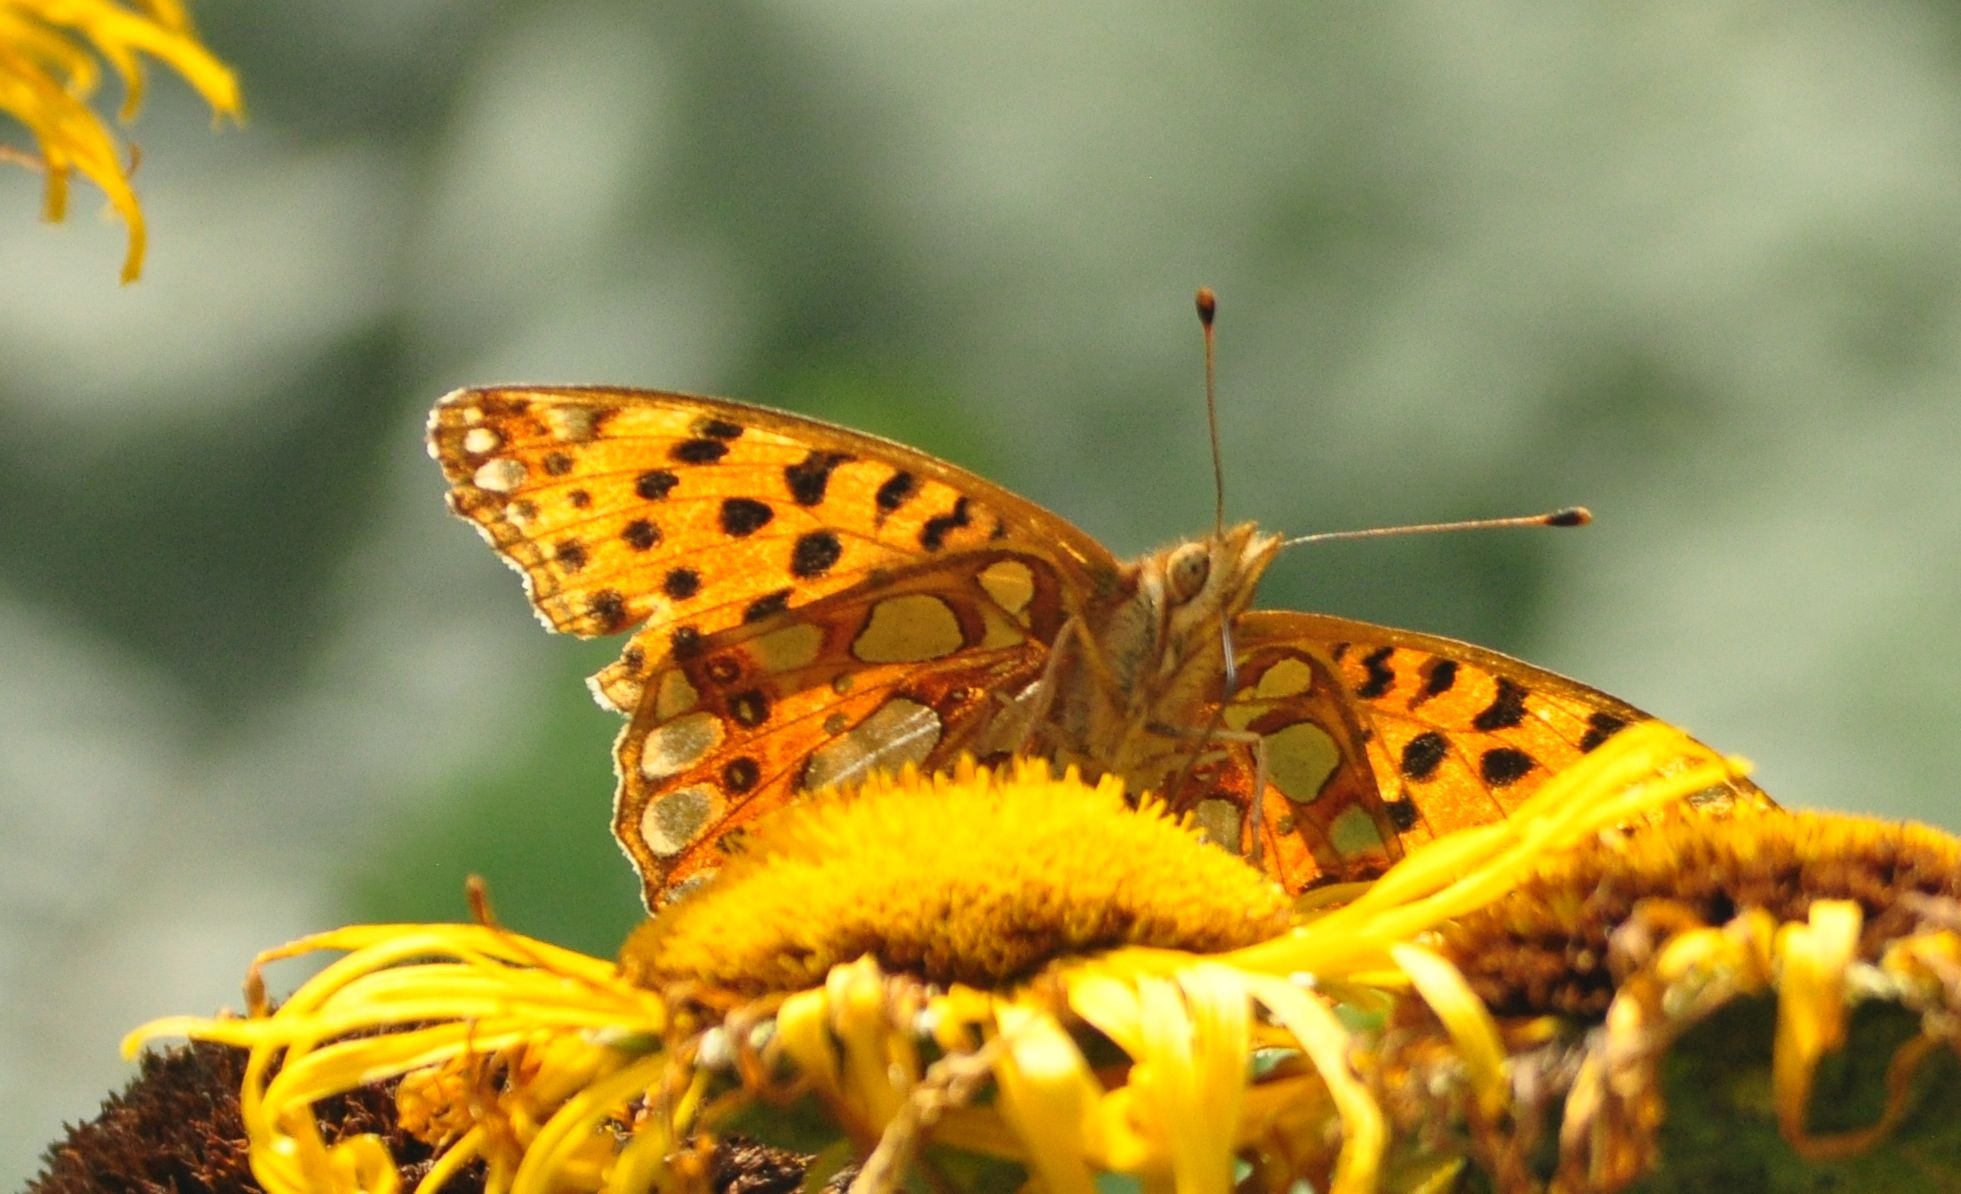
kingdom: Animalia
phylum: Arthropoda
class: Insecta
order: Lepidoptera
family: Nymphalidae
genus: Issoria
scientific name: Issoria lathonia
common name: Storplettet perlemorsommerfugl
